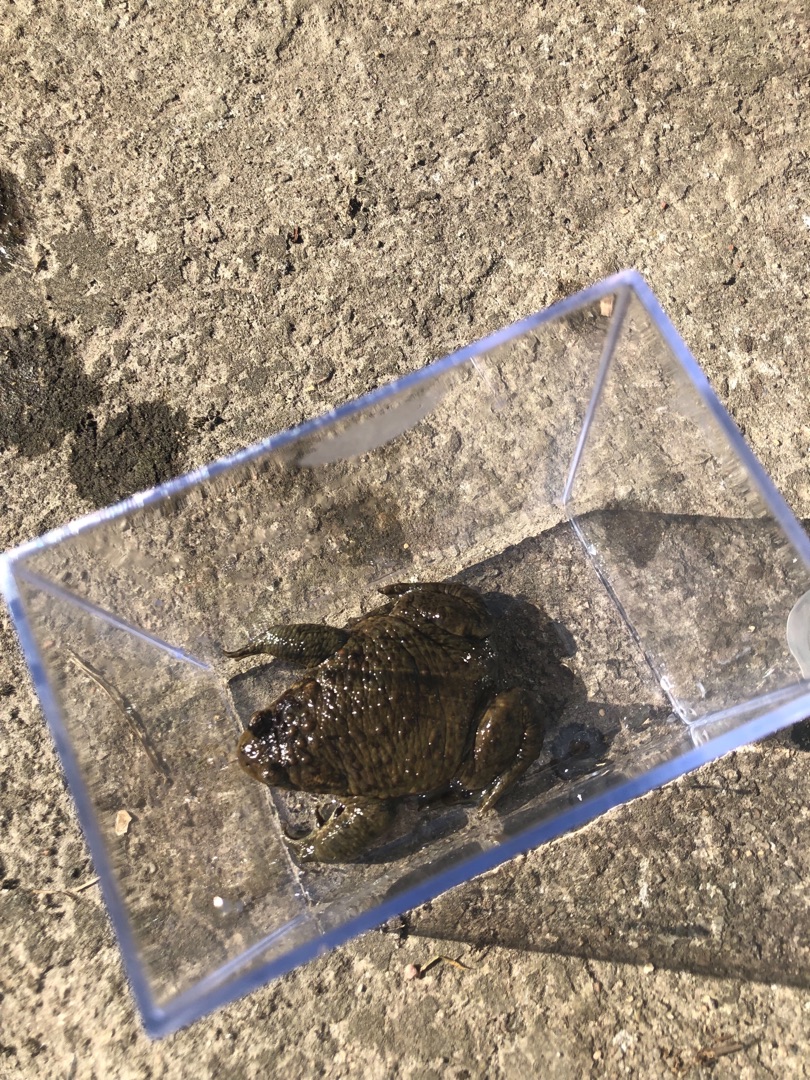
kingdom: Animalia
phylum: Chordata
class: Amphibia
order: Anura
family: Bufonidae
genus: Bufo
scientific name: Bufo bufo
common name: Skrubtudse
